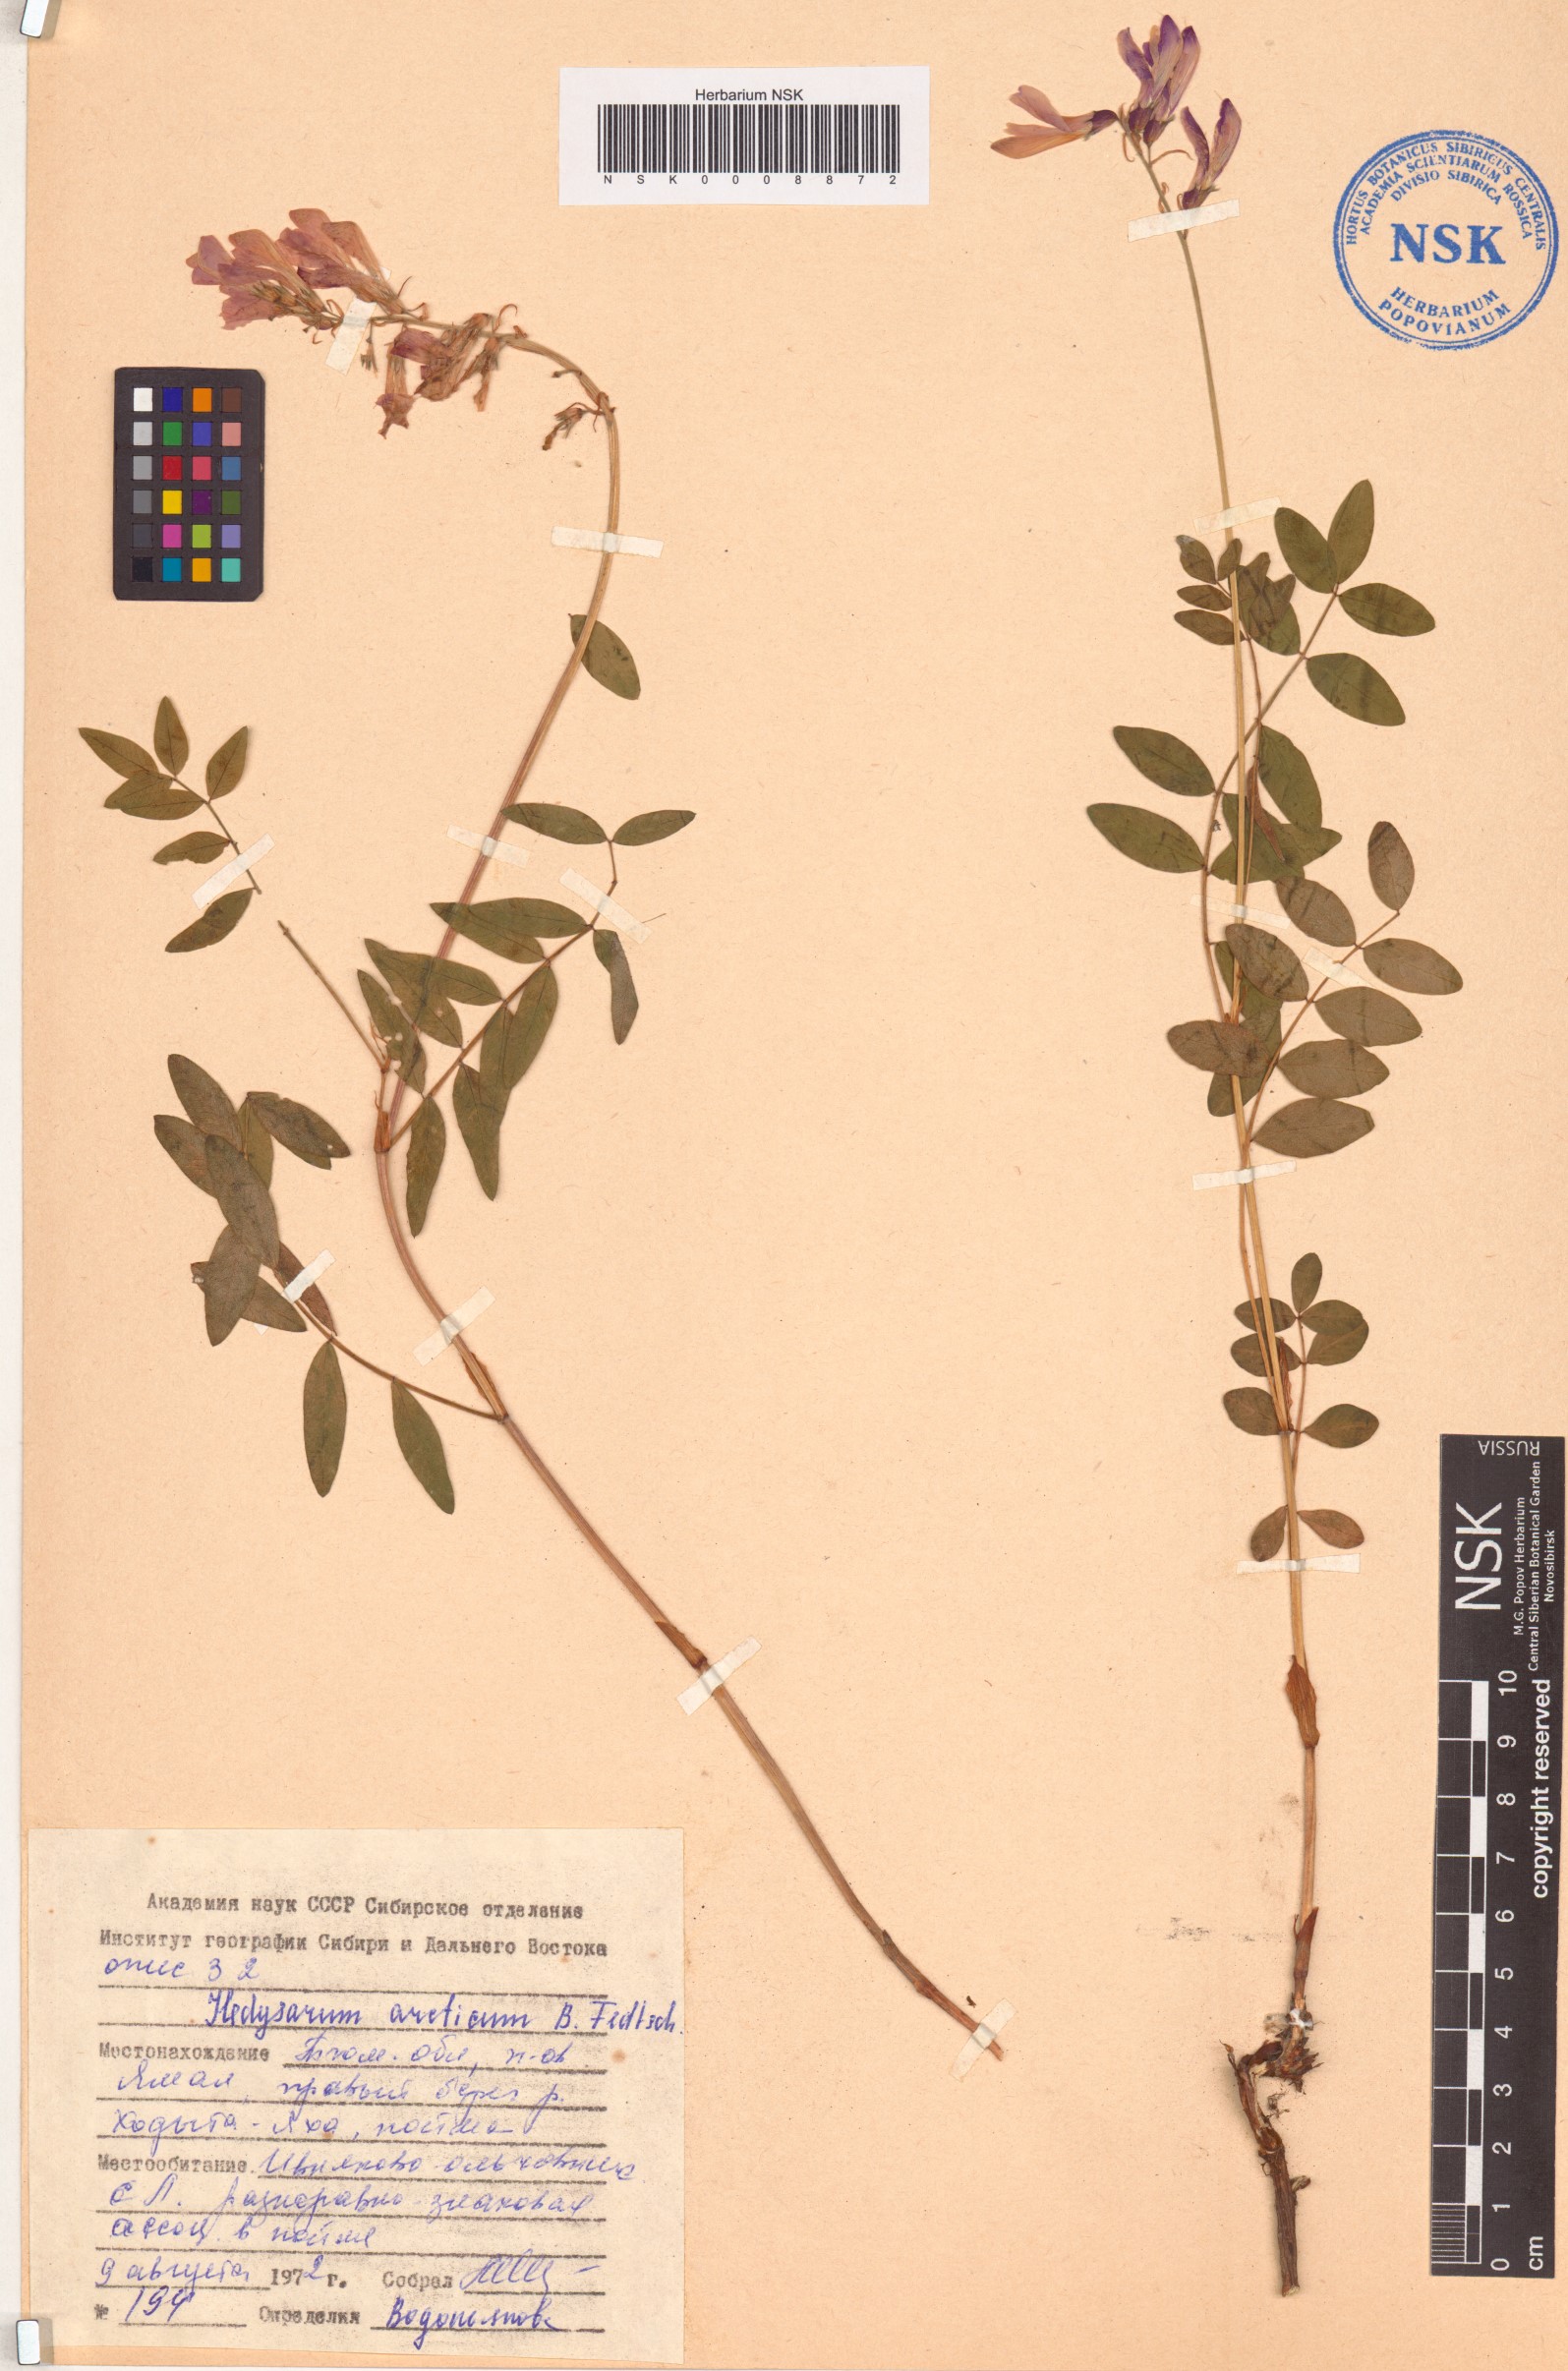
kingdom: Plantae
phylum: Tracheophyta
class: Magnoliopsida
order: Fabales
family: Fabaceae
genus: Hedysarum
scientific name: Hedysarum hedysaroides
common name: Alpine french-honeysuckle
